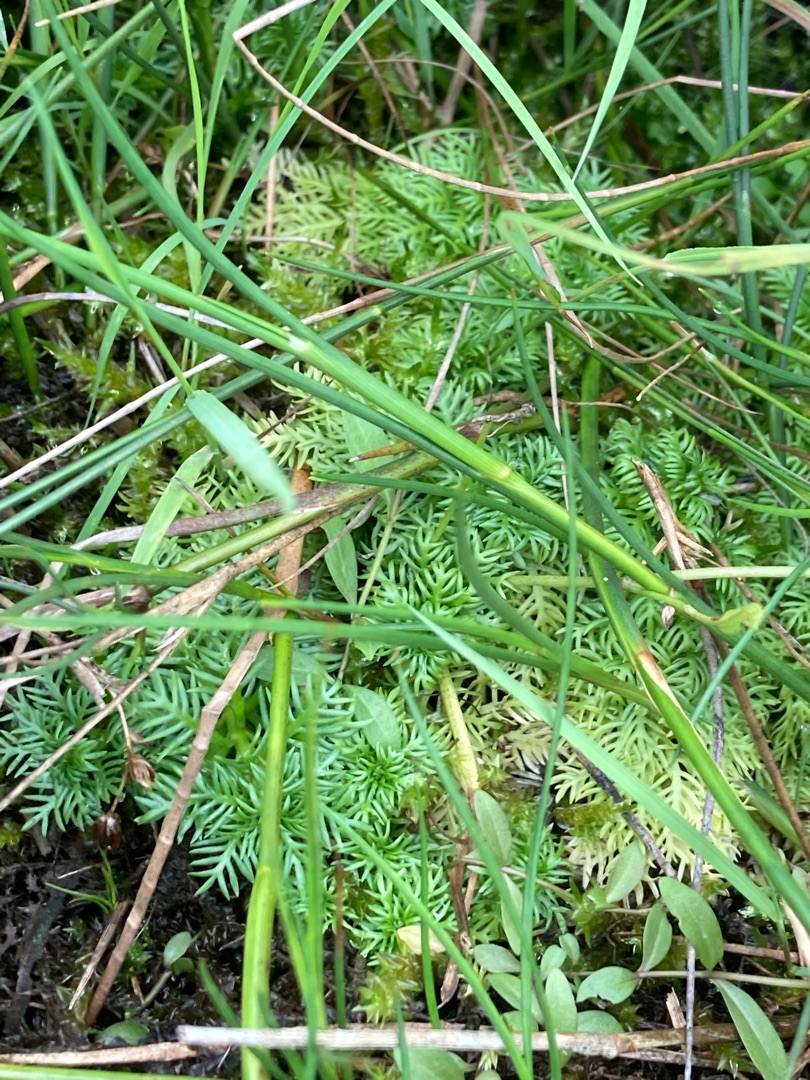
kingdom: Plantae
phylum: Tracheophyta
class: Magnoliopsida
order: Ericales
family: Primulaceae
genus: Hottonia
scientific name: Hottonia palustris
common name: Vandrøllike
